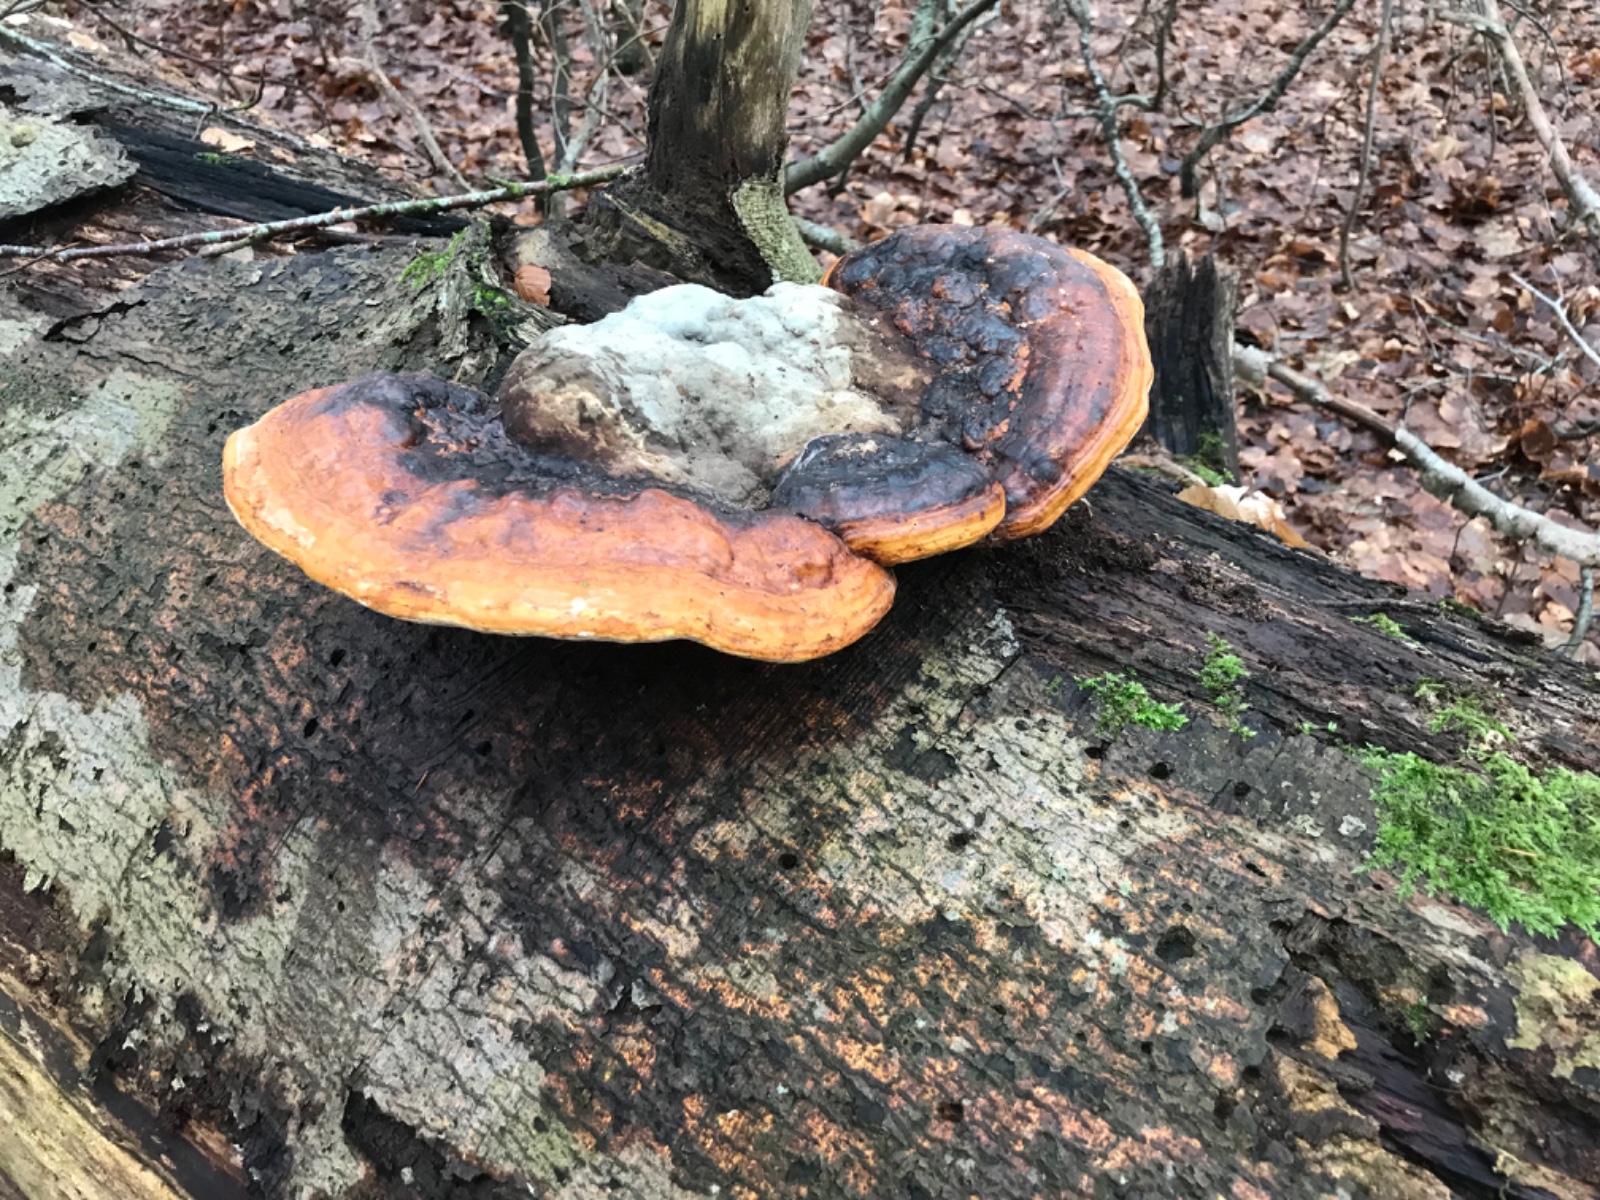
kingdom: Fungi
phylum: Basidiomycota
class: Agaricomycetes
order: Polyporales
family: Fomitopsidaceae
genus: Fomitopsis
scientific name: Fomitopsis pinicola
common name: randbæltet hovporesvamp
